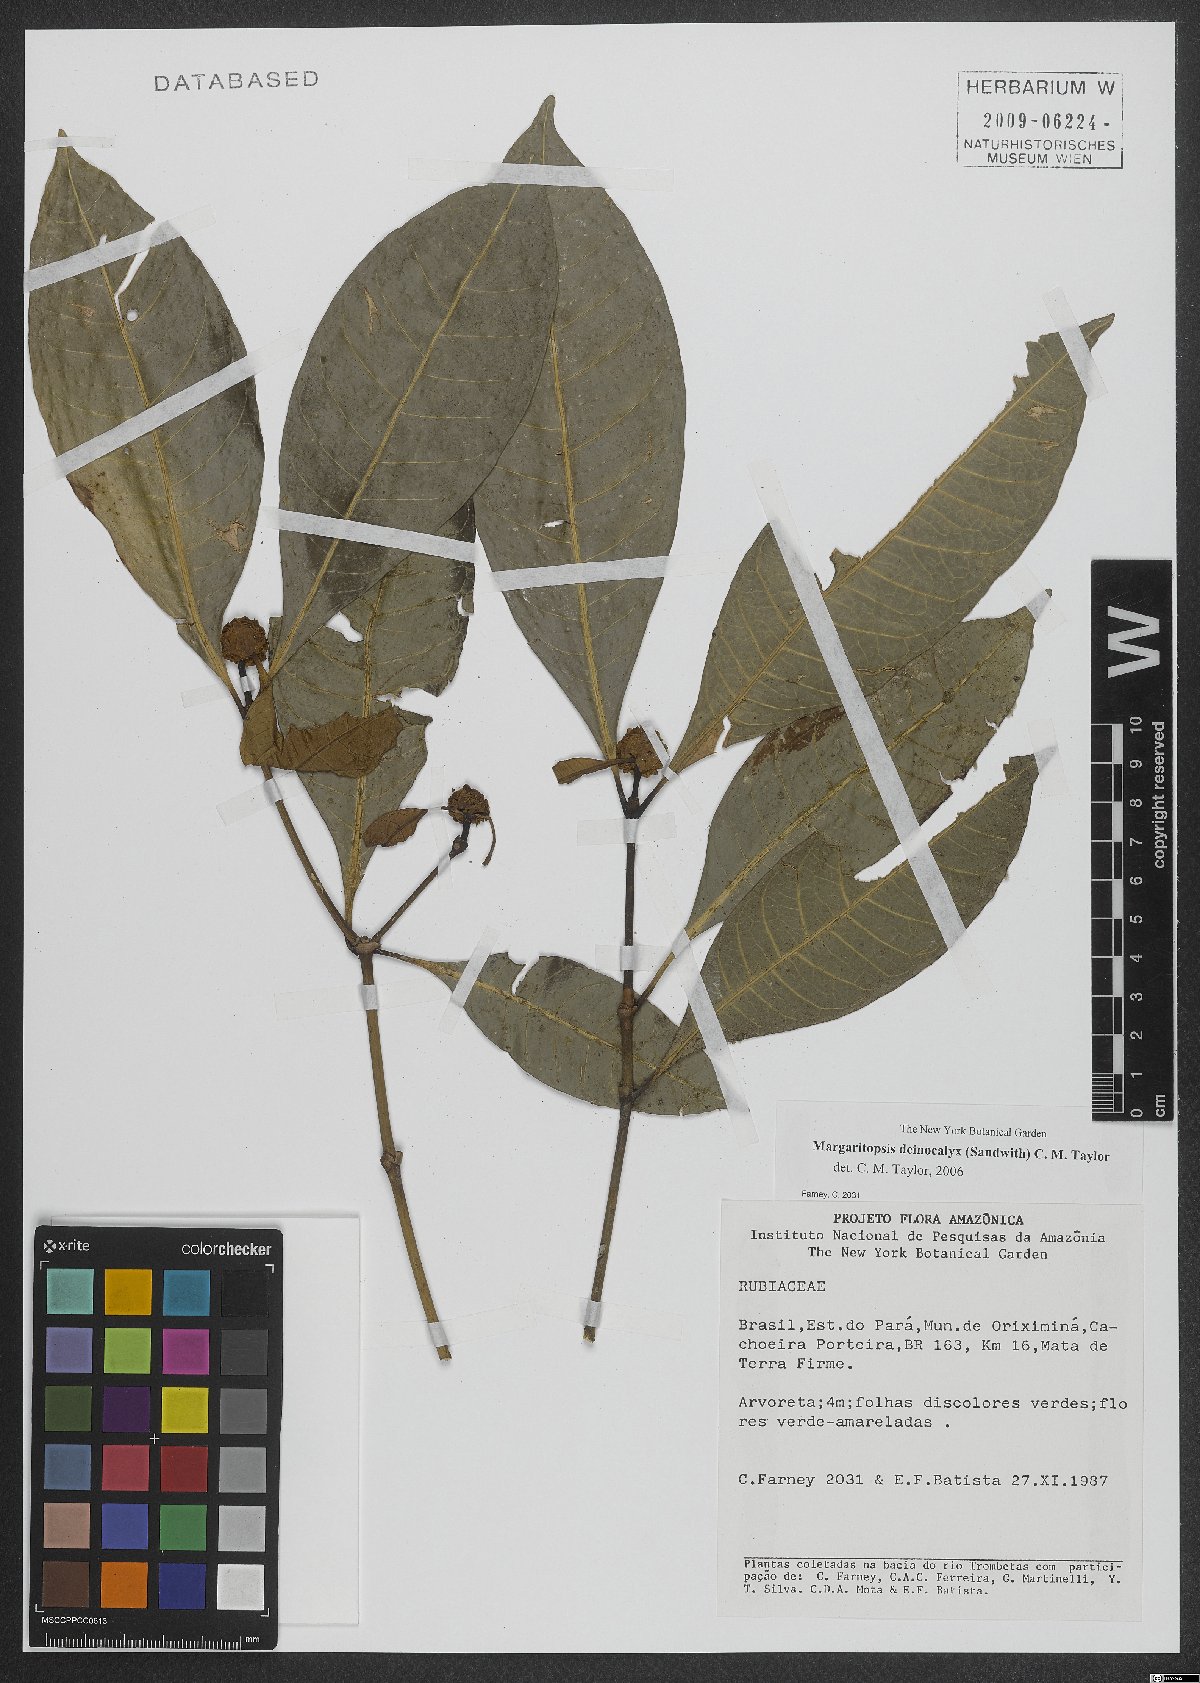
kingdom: Plantae
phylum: Tracheophyta
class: Magnoliopsida
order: Gentianales
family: Rubiaceae
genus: Eumachia
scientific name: Eumachia deinocalyx
